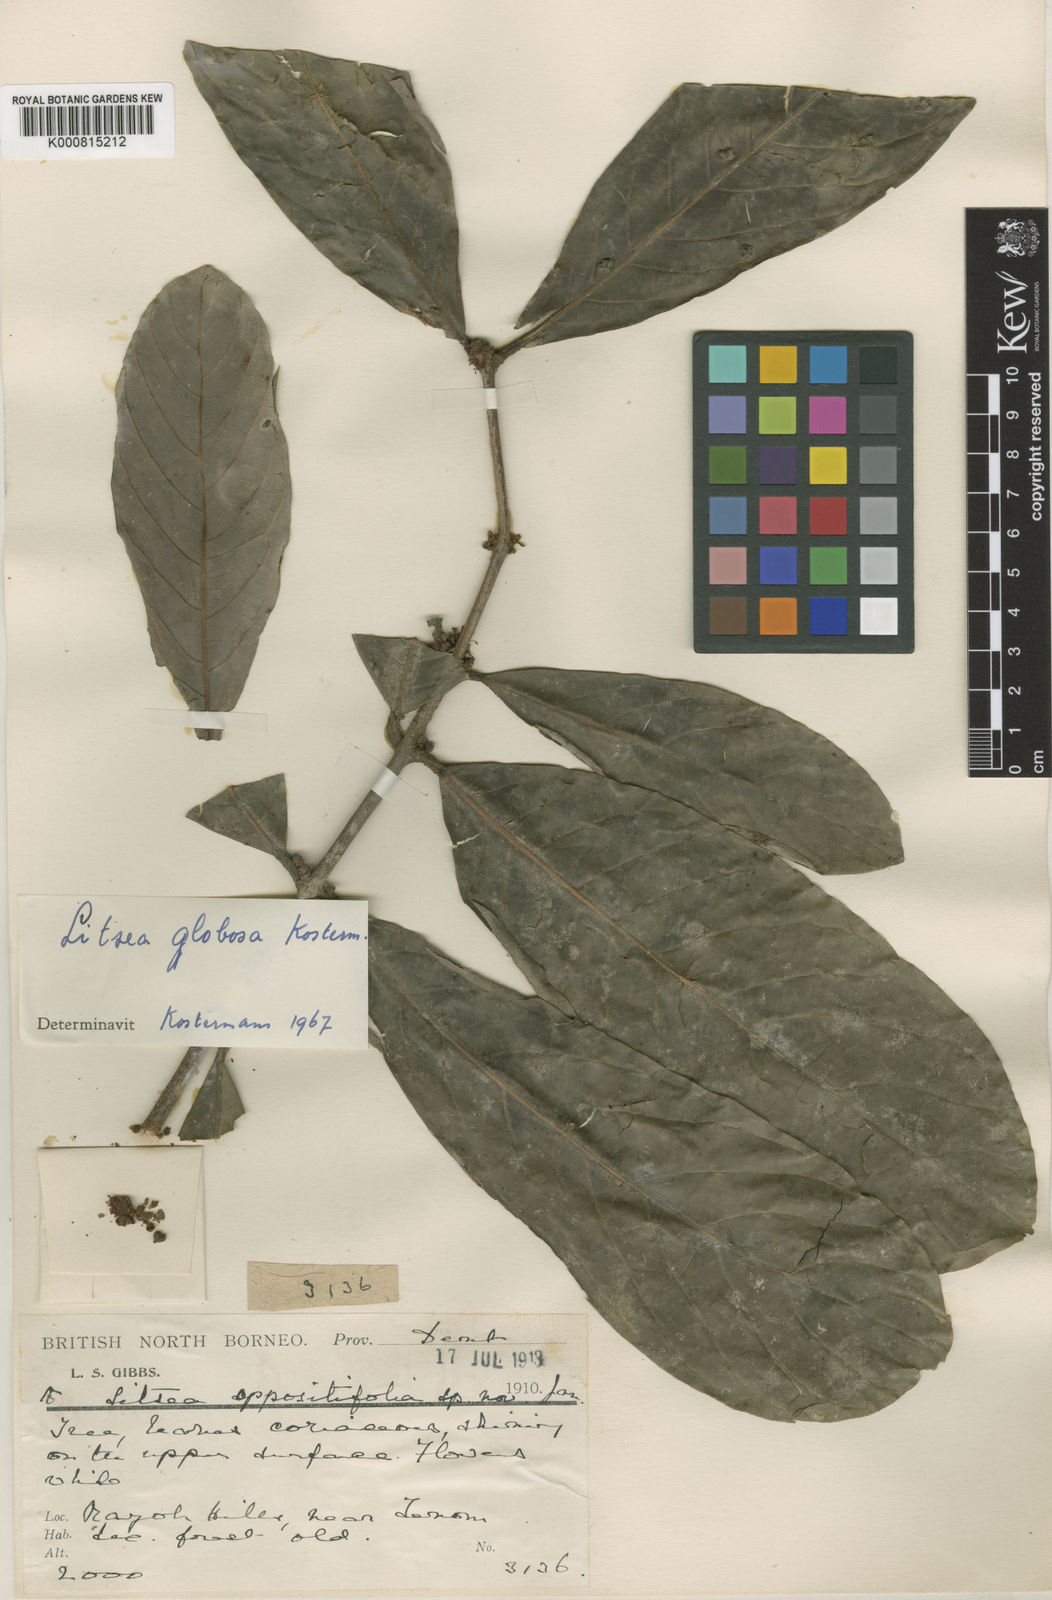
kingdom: Plantae
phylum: Tracheophyta
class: Magnoliopsida
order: Laurales
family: Lauraceae
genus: Litsea
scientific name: Litsea globosa
